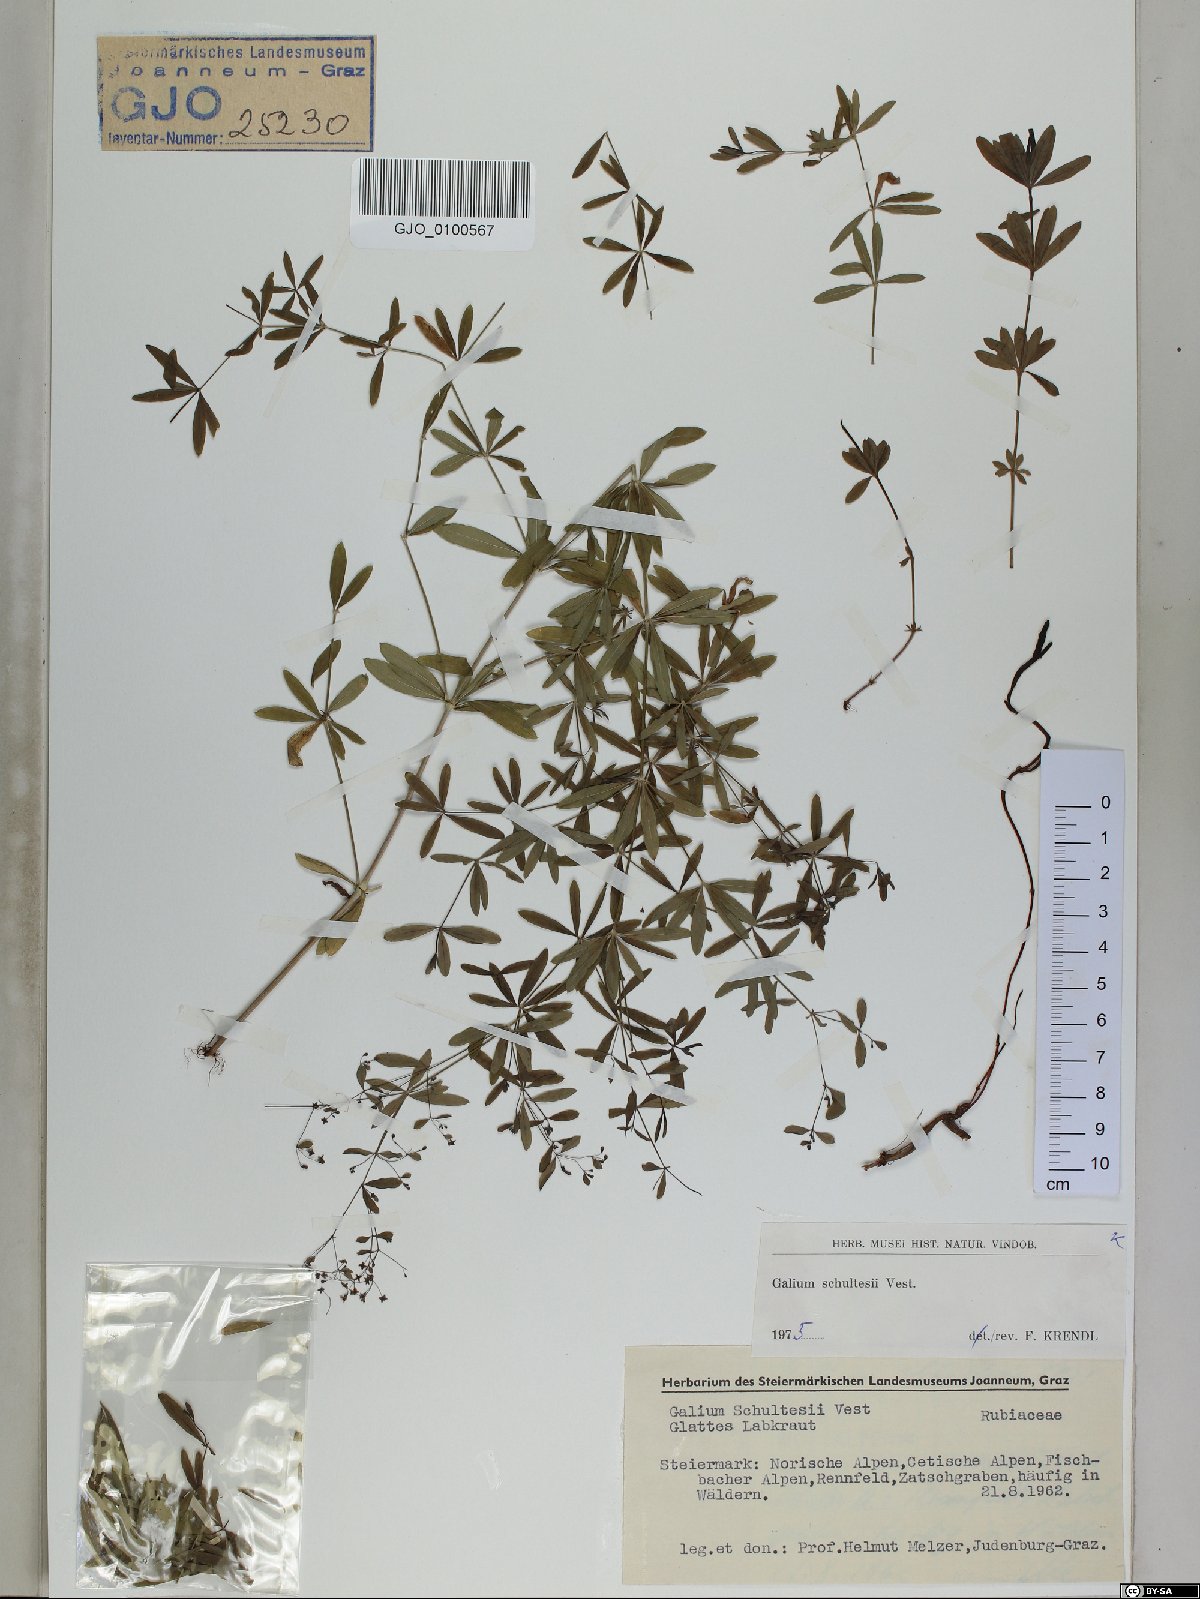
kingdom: Plantae
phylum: Tracheophyta
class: Magnoliopsida
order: Gentianales
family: Rubiaceae
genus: Galium
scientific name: Galium intermedium
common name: Bedstraw
